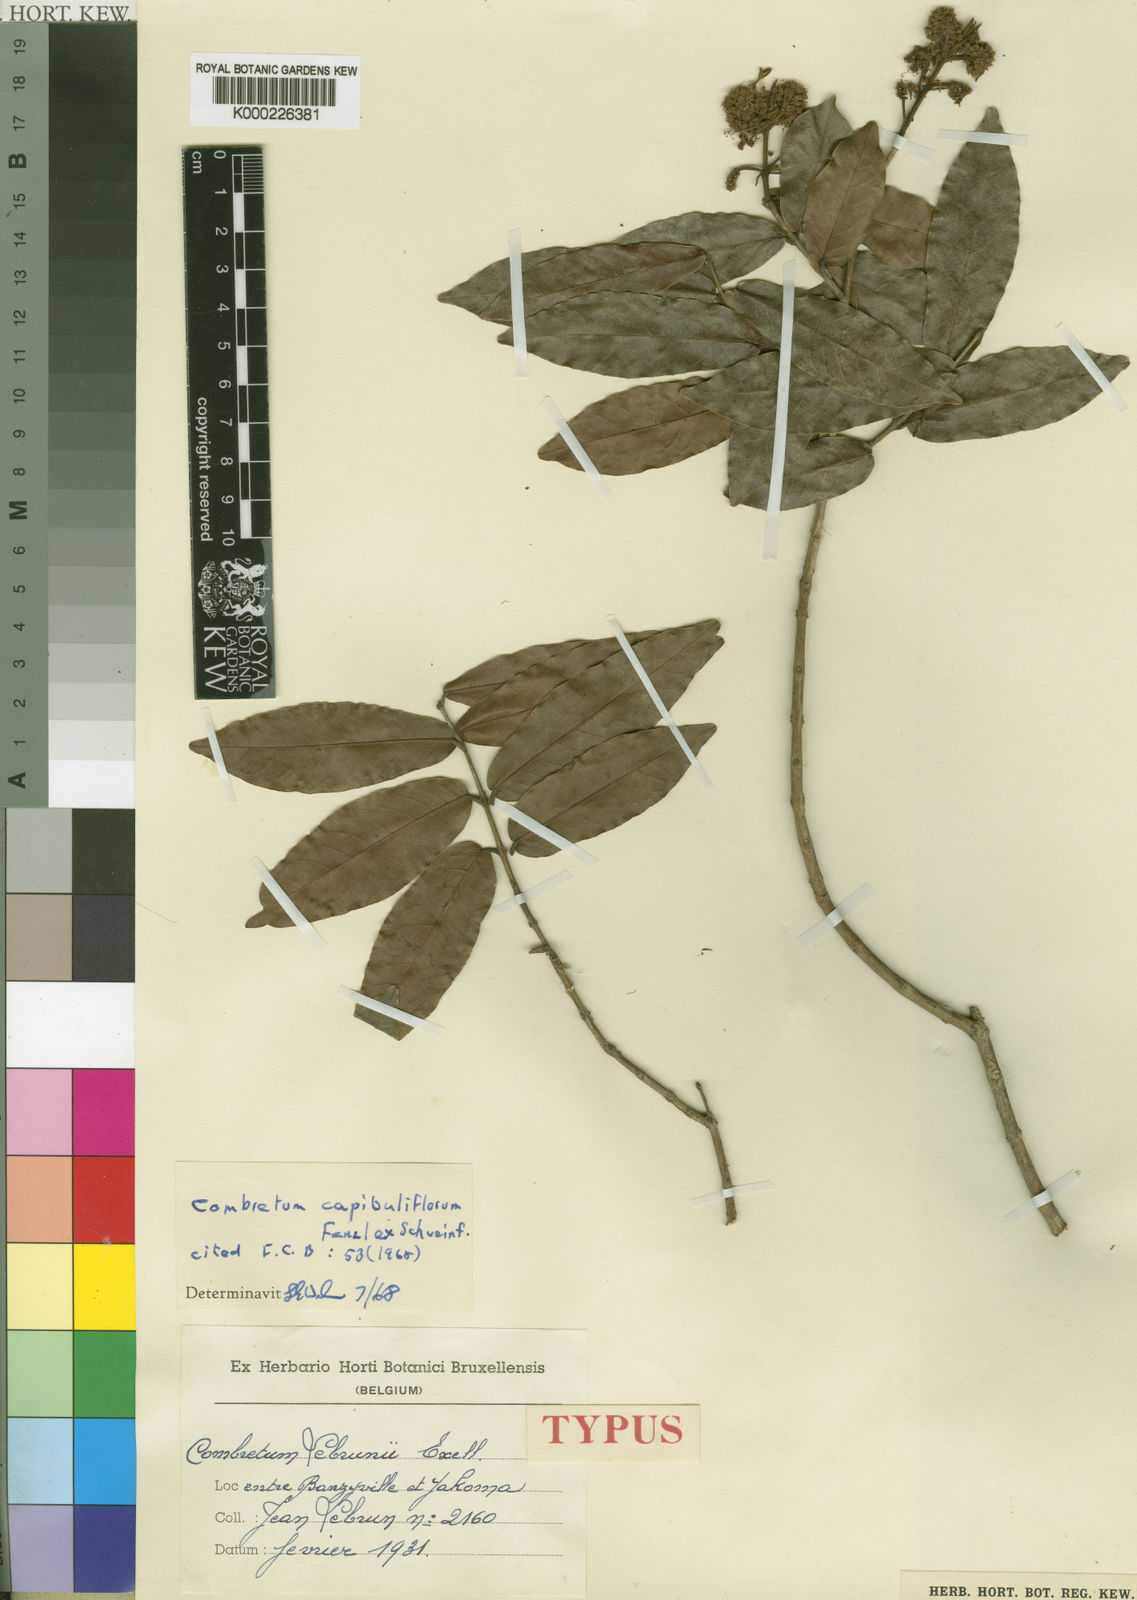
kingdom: Plantae
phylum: Tracheophyta
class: Magnoliopsida
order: Myrtales
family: Combretaceae
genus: Combretum
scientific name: Combretum capituliflorum
